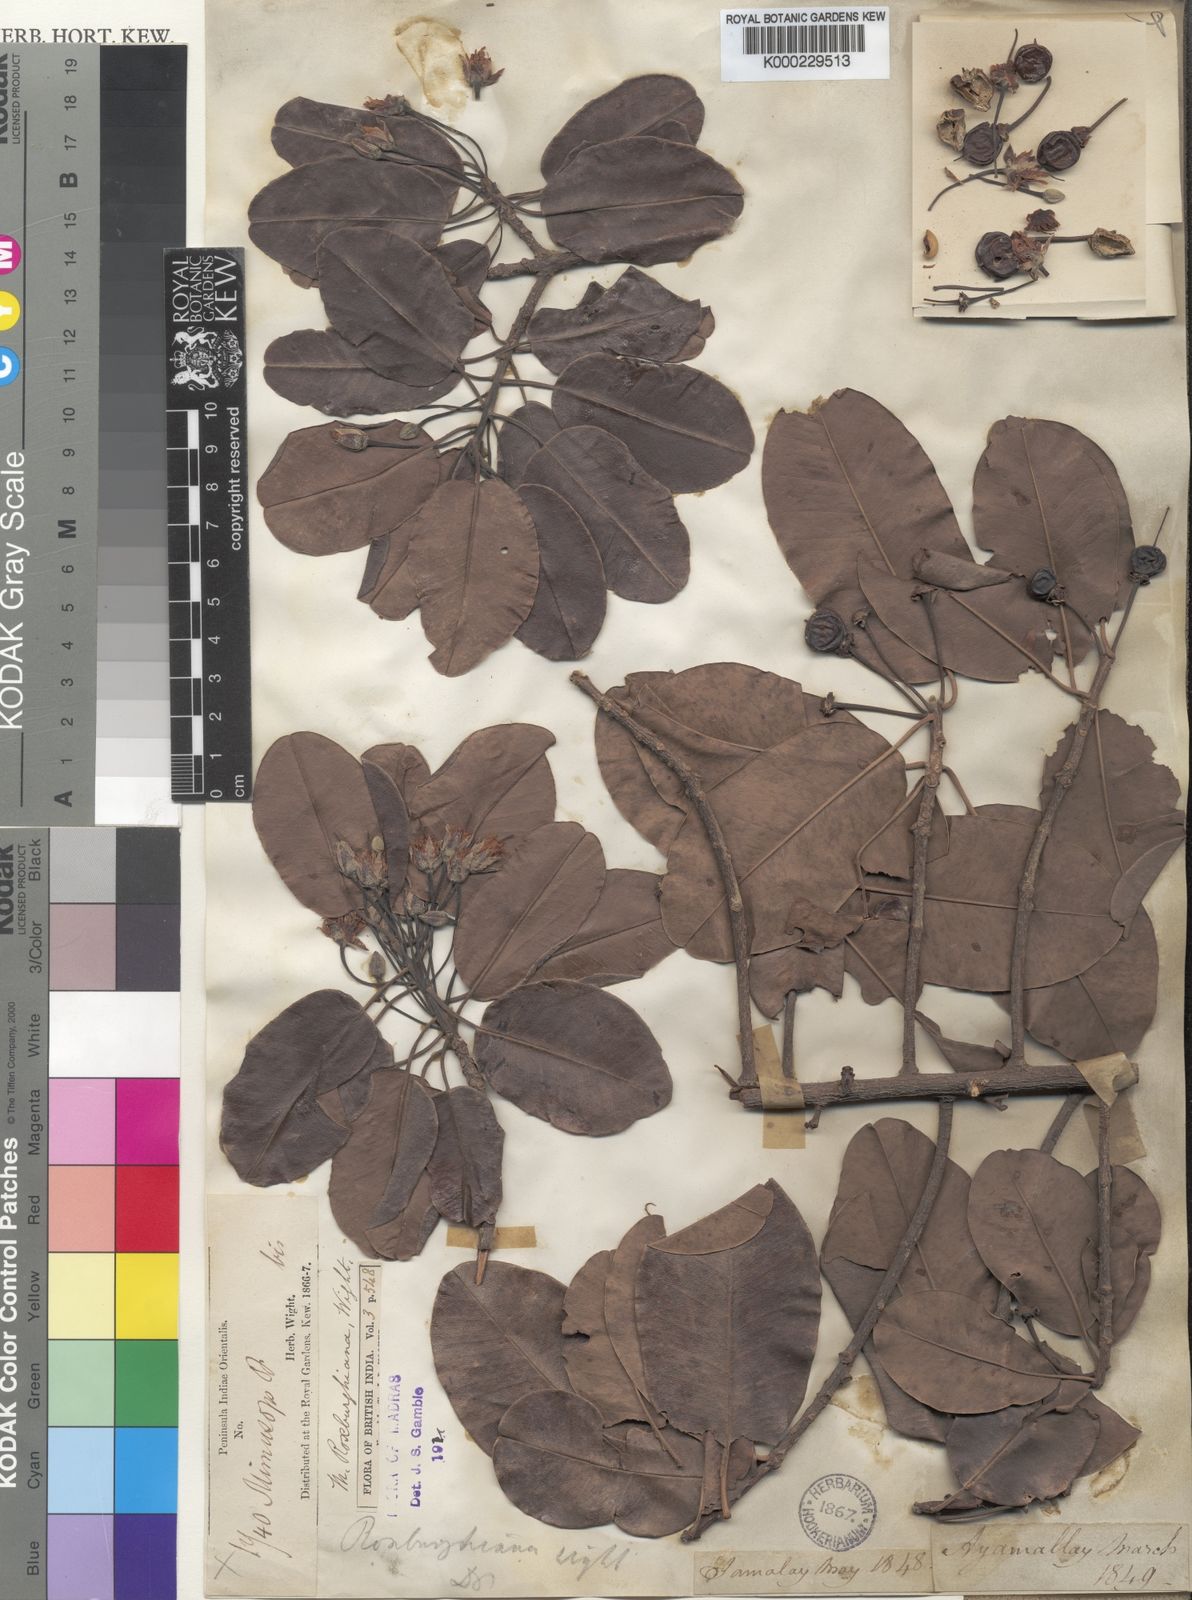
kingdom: Plantae
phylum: Tracheophyta
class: Magnoliopsida
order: Ericales
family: Sapotaceae
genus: Manilkara
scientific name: Manilkara
